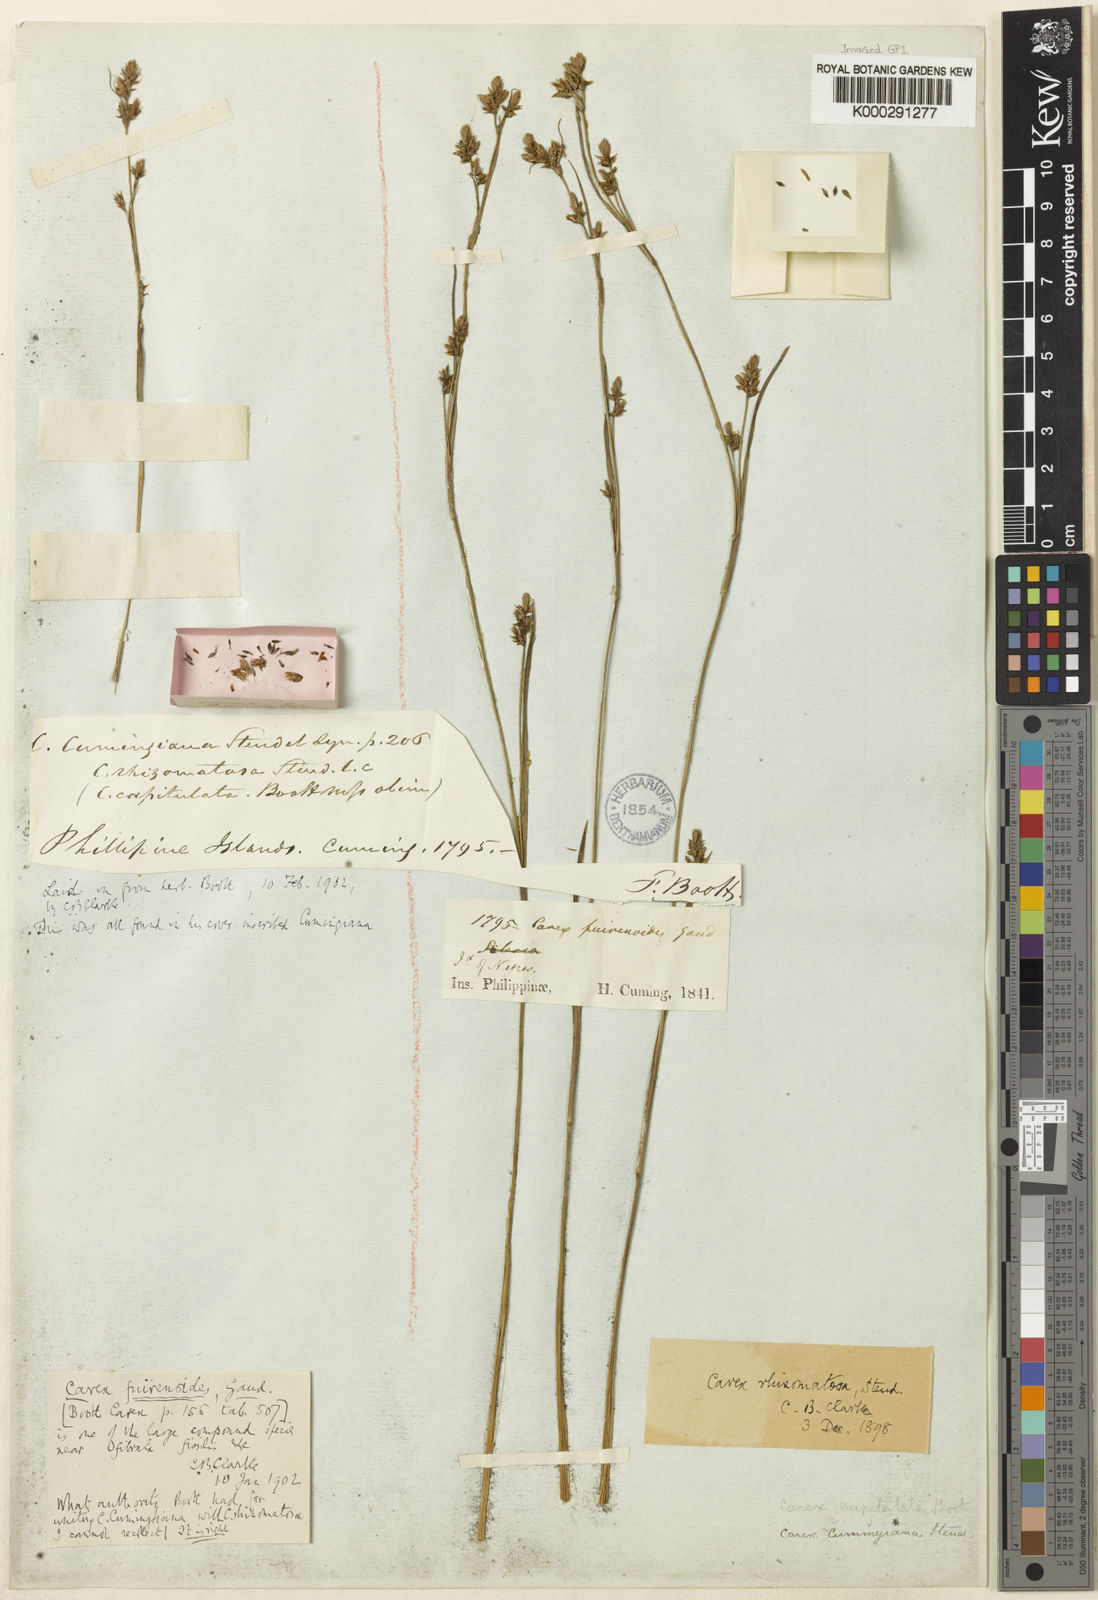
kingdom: Plantae
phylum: Tracheophyta
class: Liliopsida
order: Poales
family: Cyperaceae
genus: Carex
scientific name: Carex oligostachya
